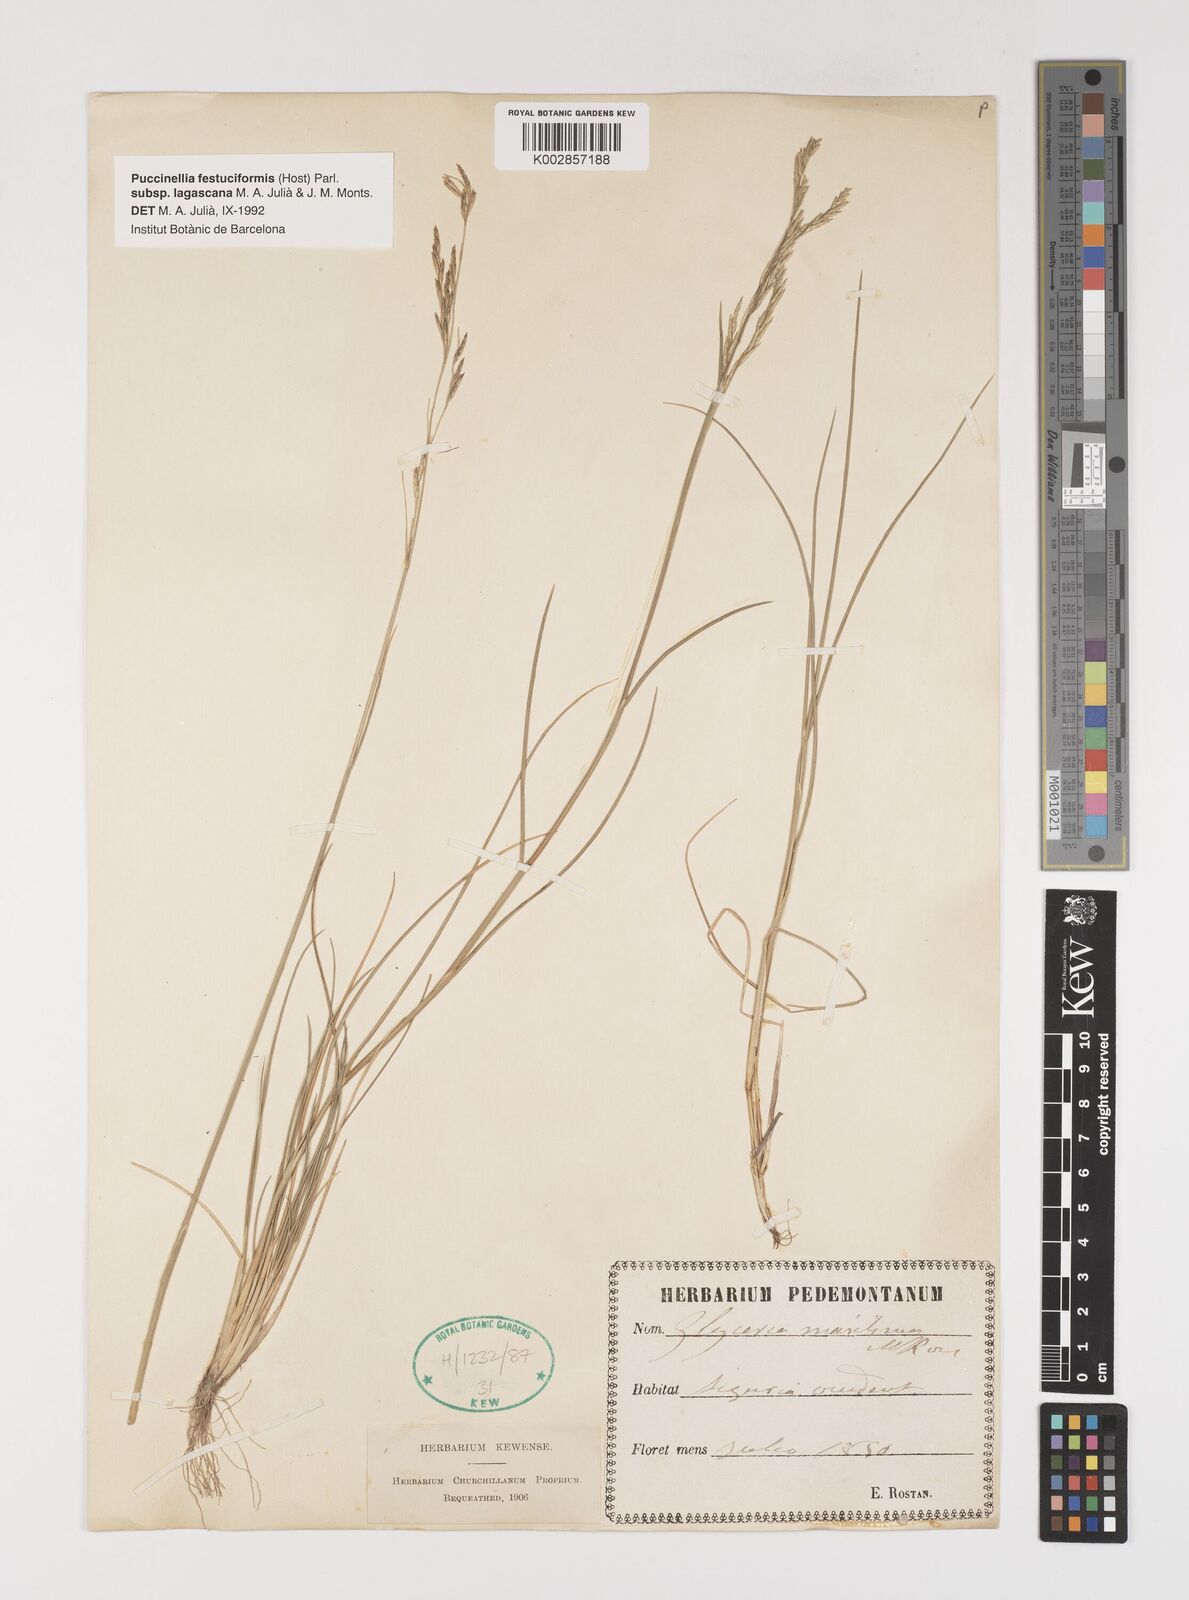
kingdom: Plantae
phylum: Tracheophyta
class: Liliopsida
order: Poales
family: Poaceae
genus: Puccinellia
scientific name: Puccinellia festuciformis
